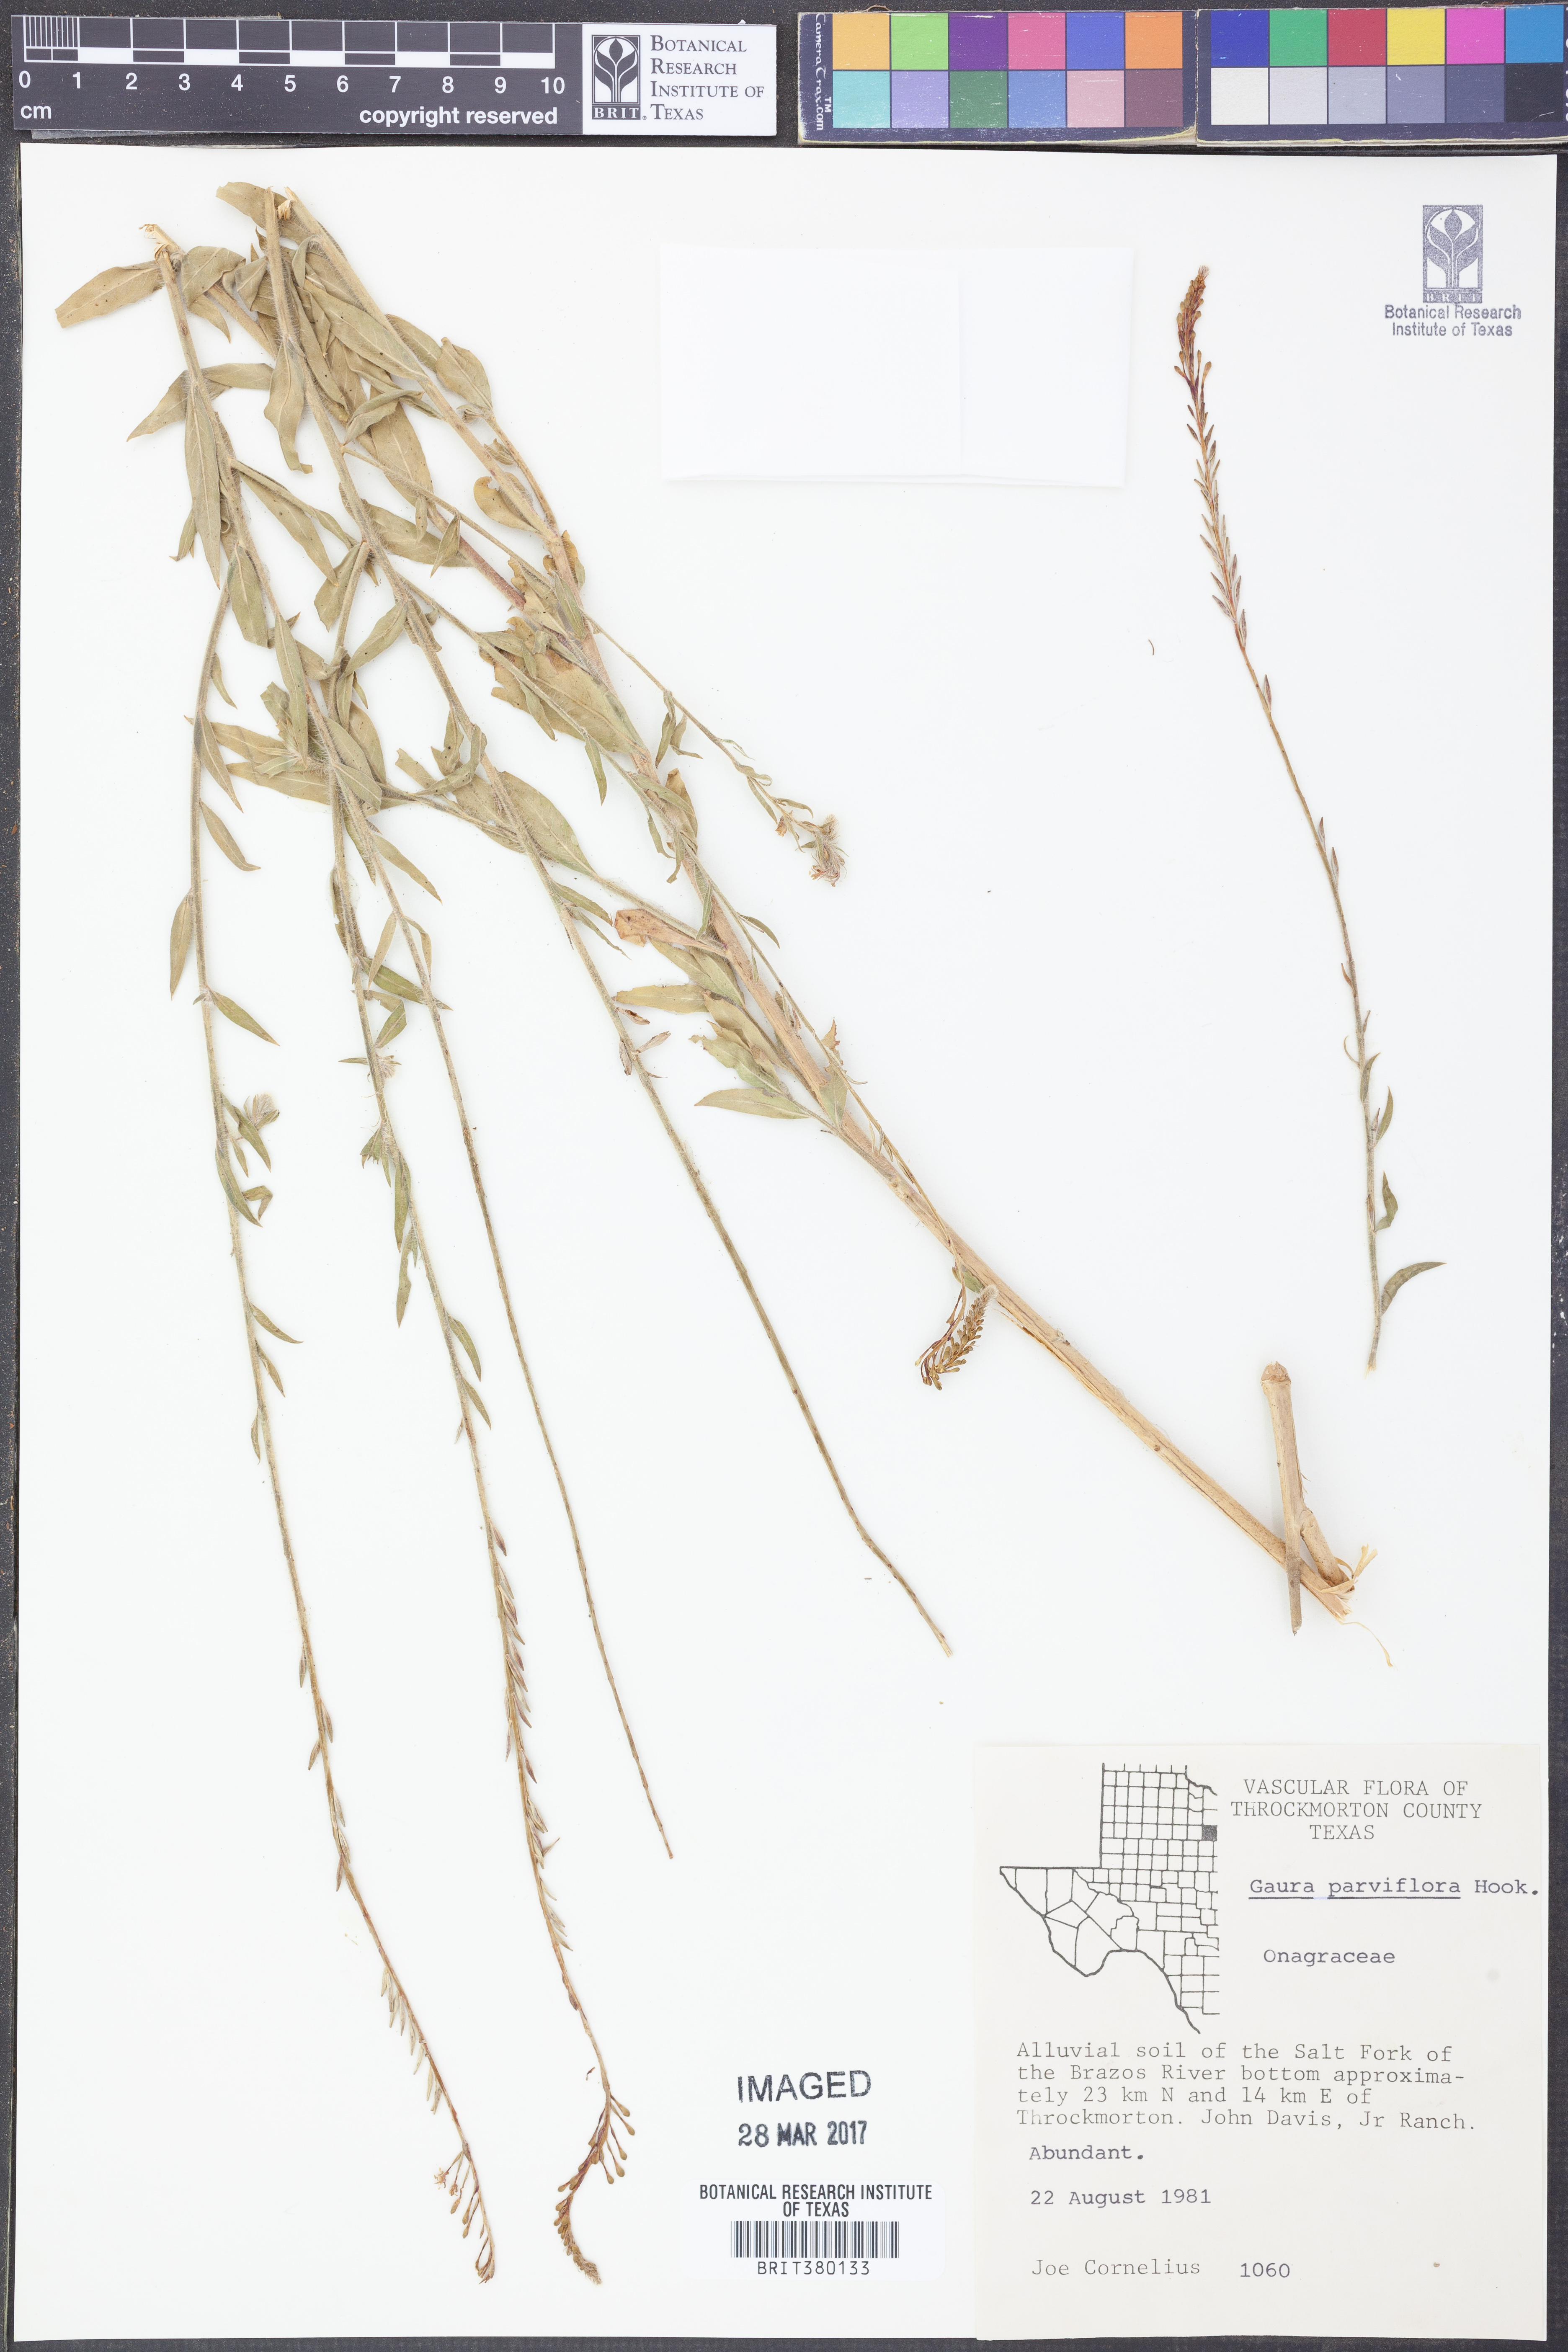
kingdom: Plantae
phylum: Tracheophyta
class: Magnoliopsida
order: Myrtales
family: Onagraceae
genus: Oenothera
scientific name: Oenothera curtiflora
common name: Velvetweed
